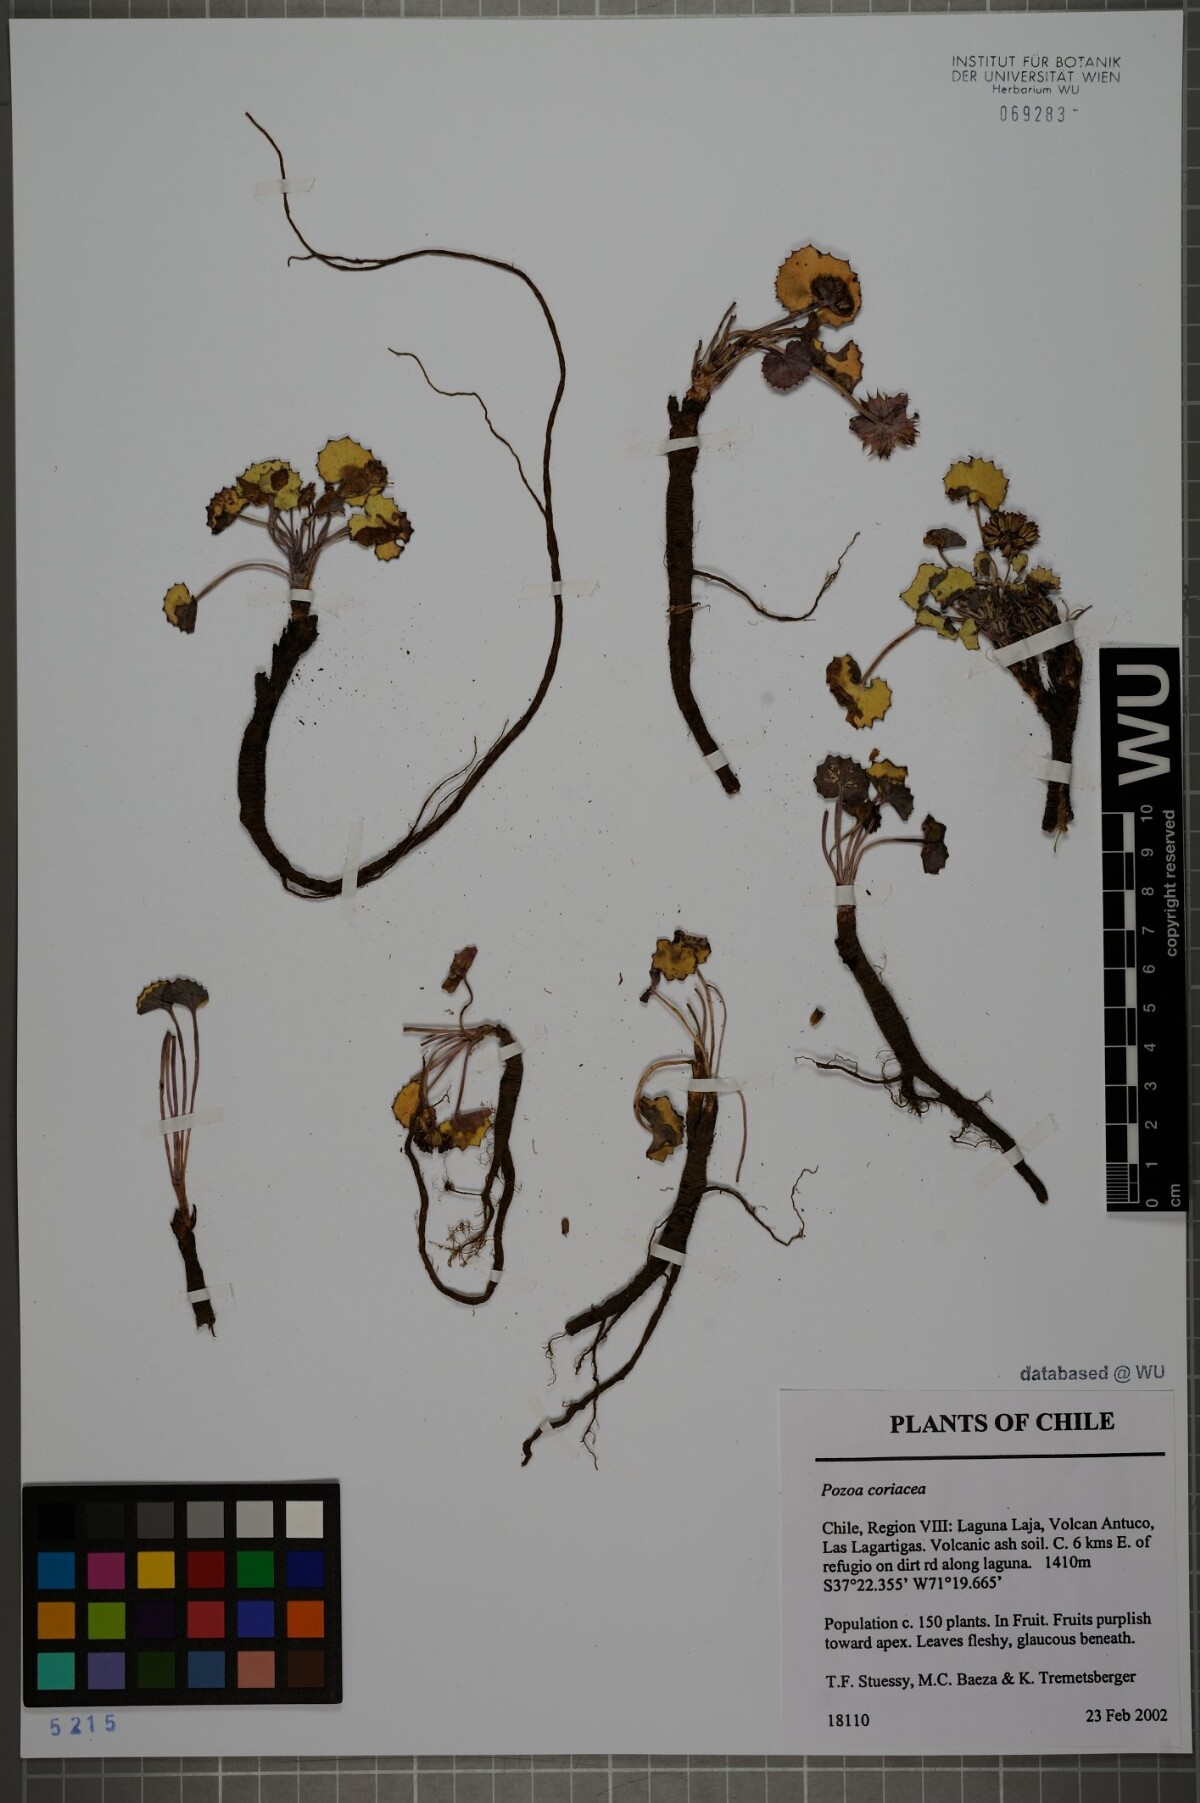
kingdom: Plantae
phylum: Tracheophyta
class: Magnoliopsida
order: Apiales
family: Apiaceae
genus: Pozoa
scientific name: Pozoa coriacea
